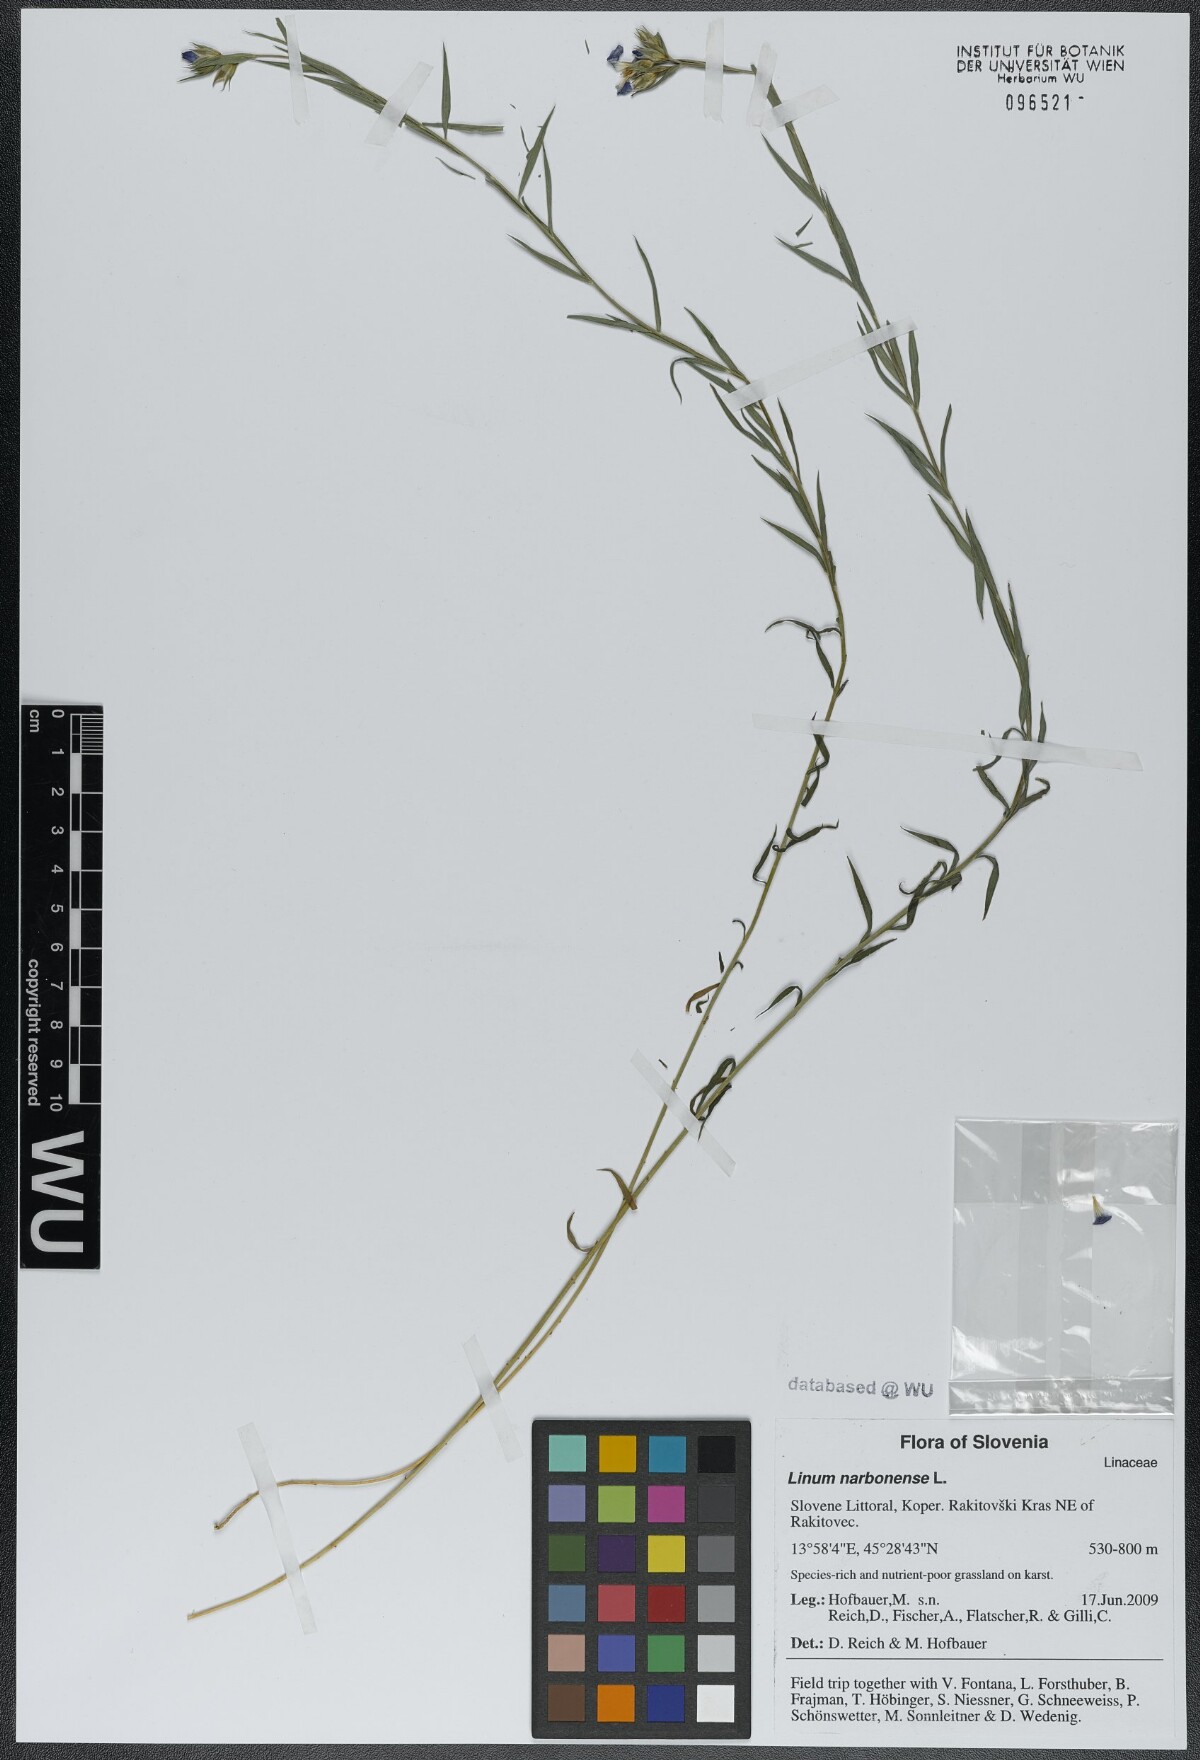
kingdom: Plantae
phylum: Tracheophyta
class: Magnoliopsida
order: Malpighiales
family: Linaceae
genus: Linum
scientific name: Linum narbonense
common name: Flax
